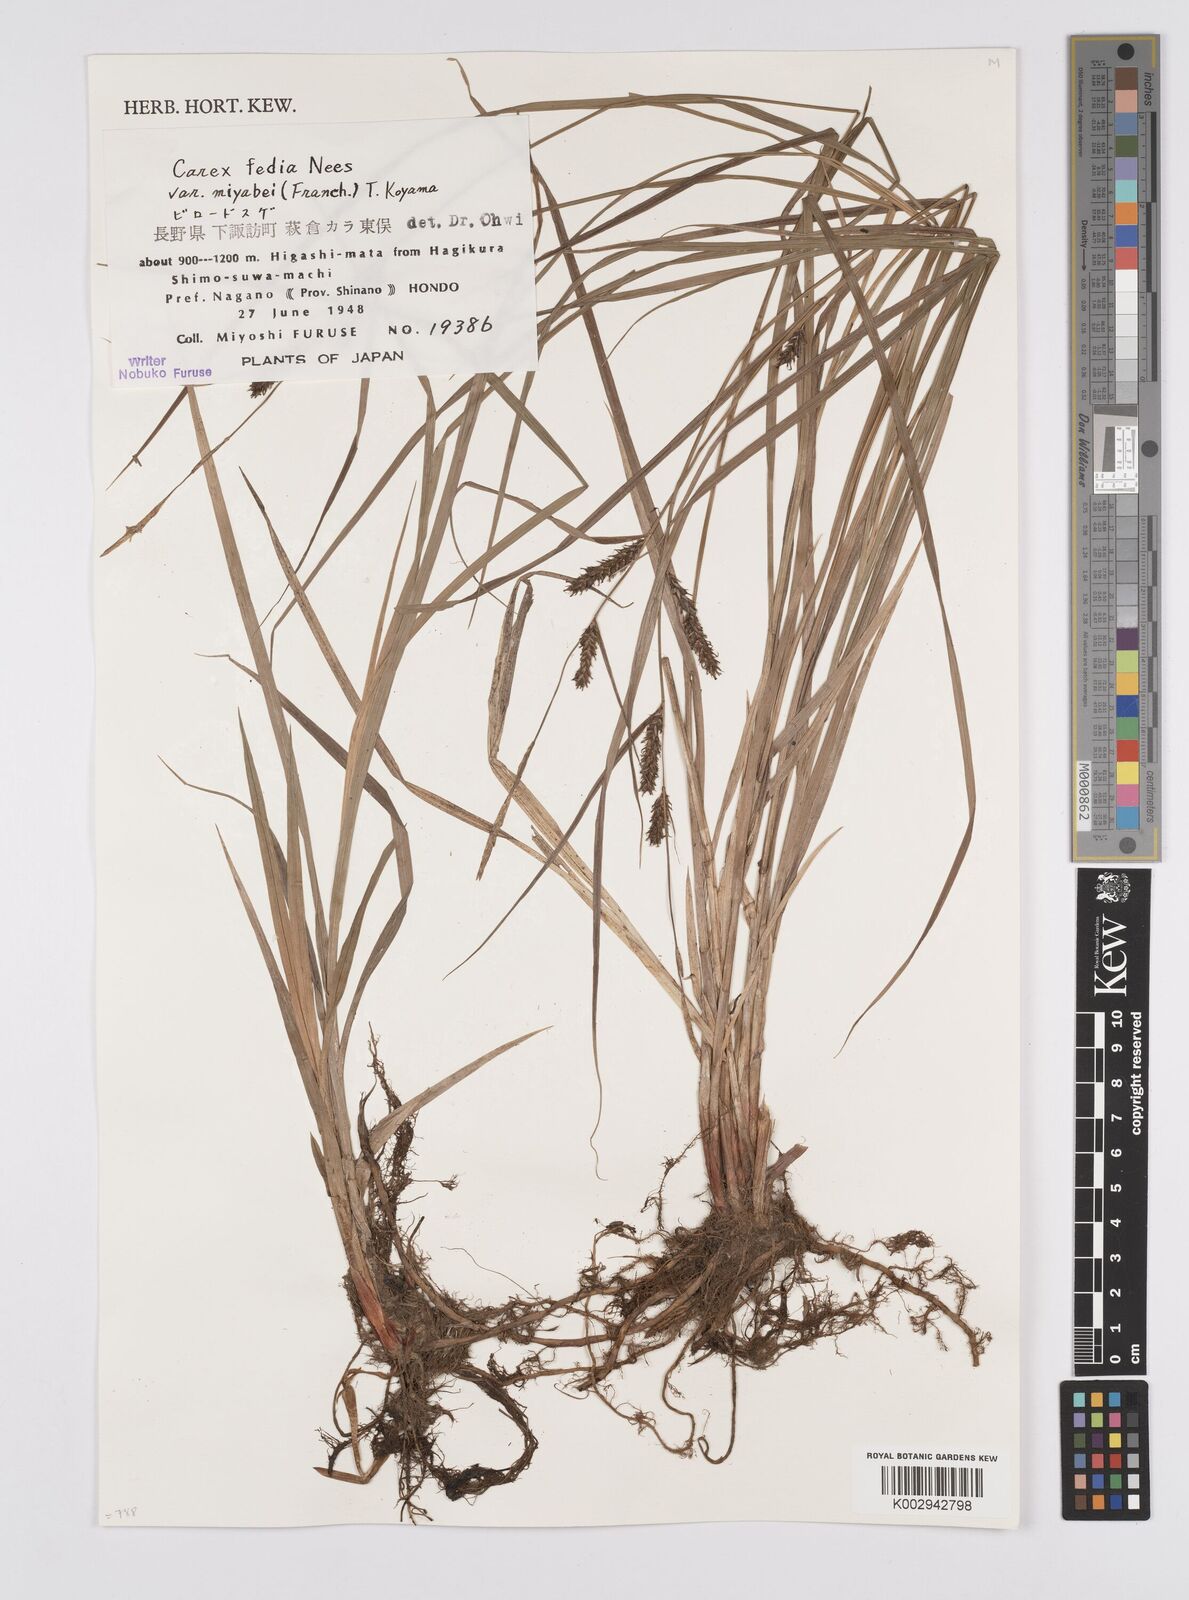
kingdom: Plantae
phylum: Tracheophyta
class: Liliopsida
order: Poales
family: Cyperaceae
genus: Carex
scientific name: Carex fedia
